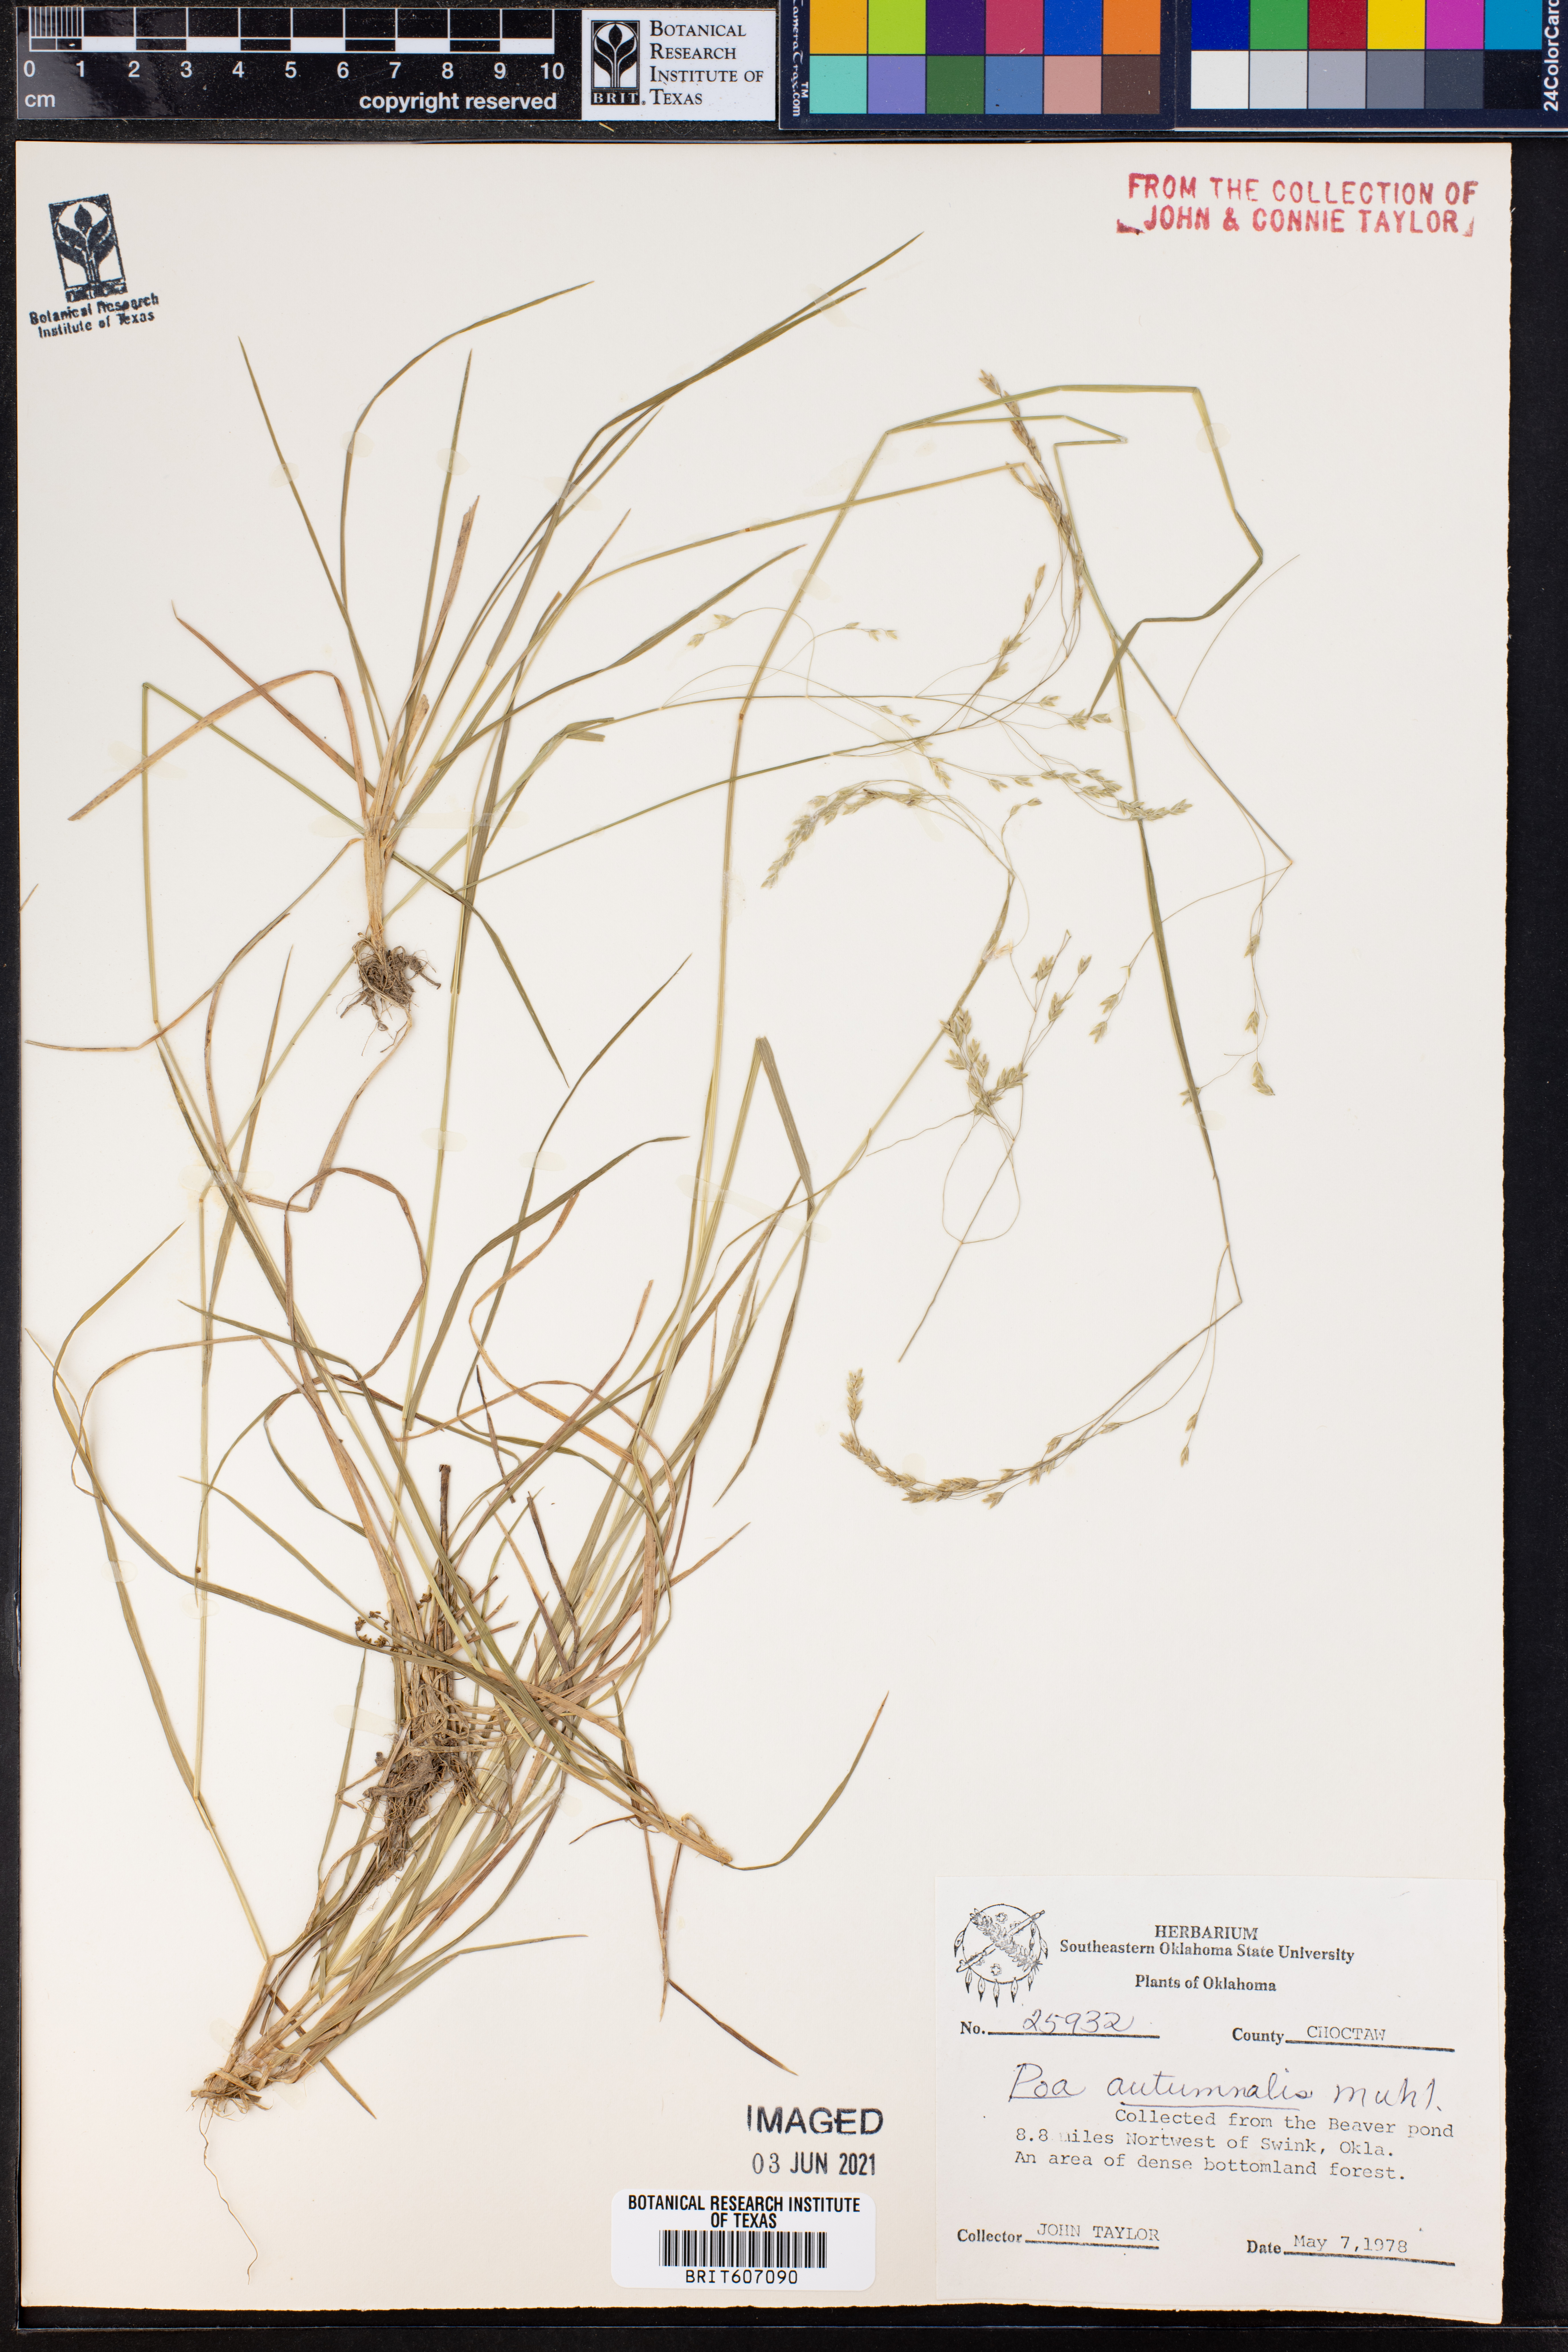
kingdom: Plantae
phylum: Tracheophyta
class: Liliopsida
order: Poales
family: Poaceae
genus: Poa
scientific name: Poa autumnalis
